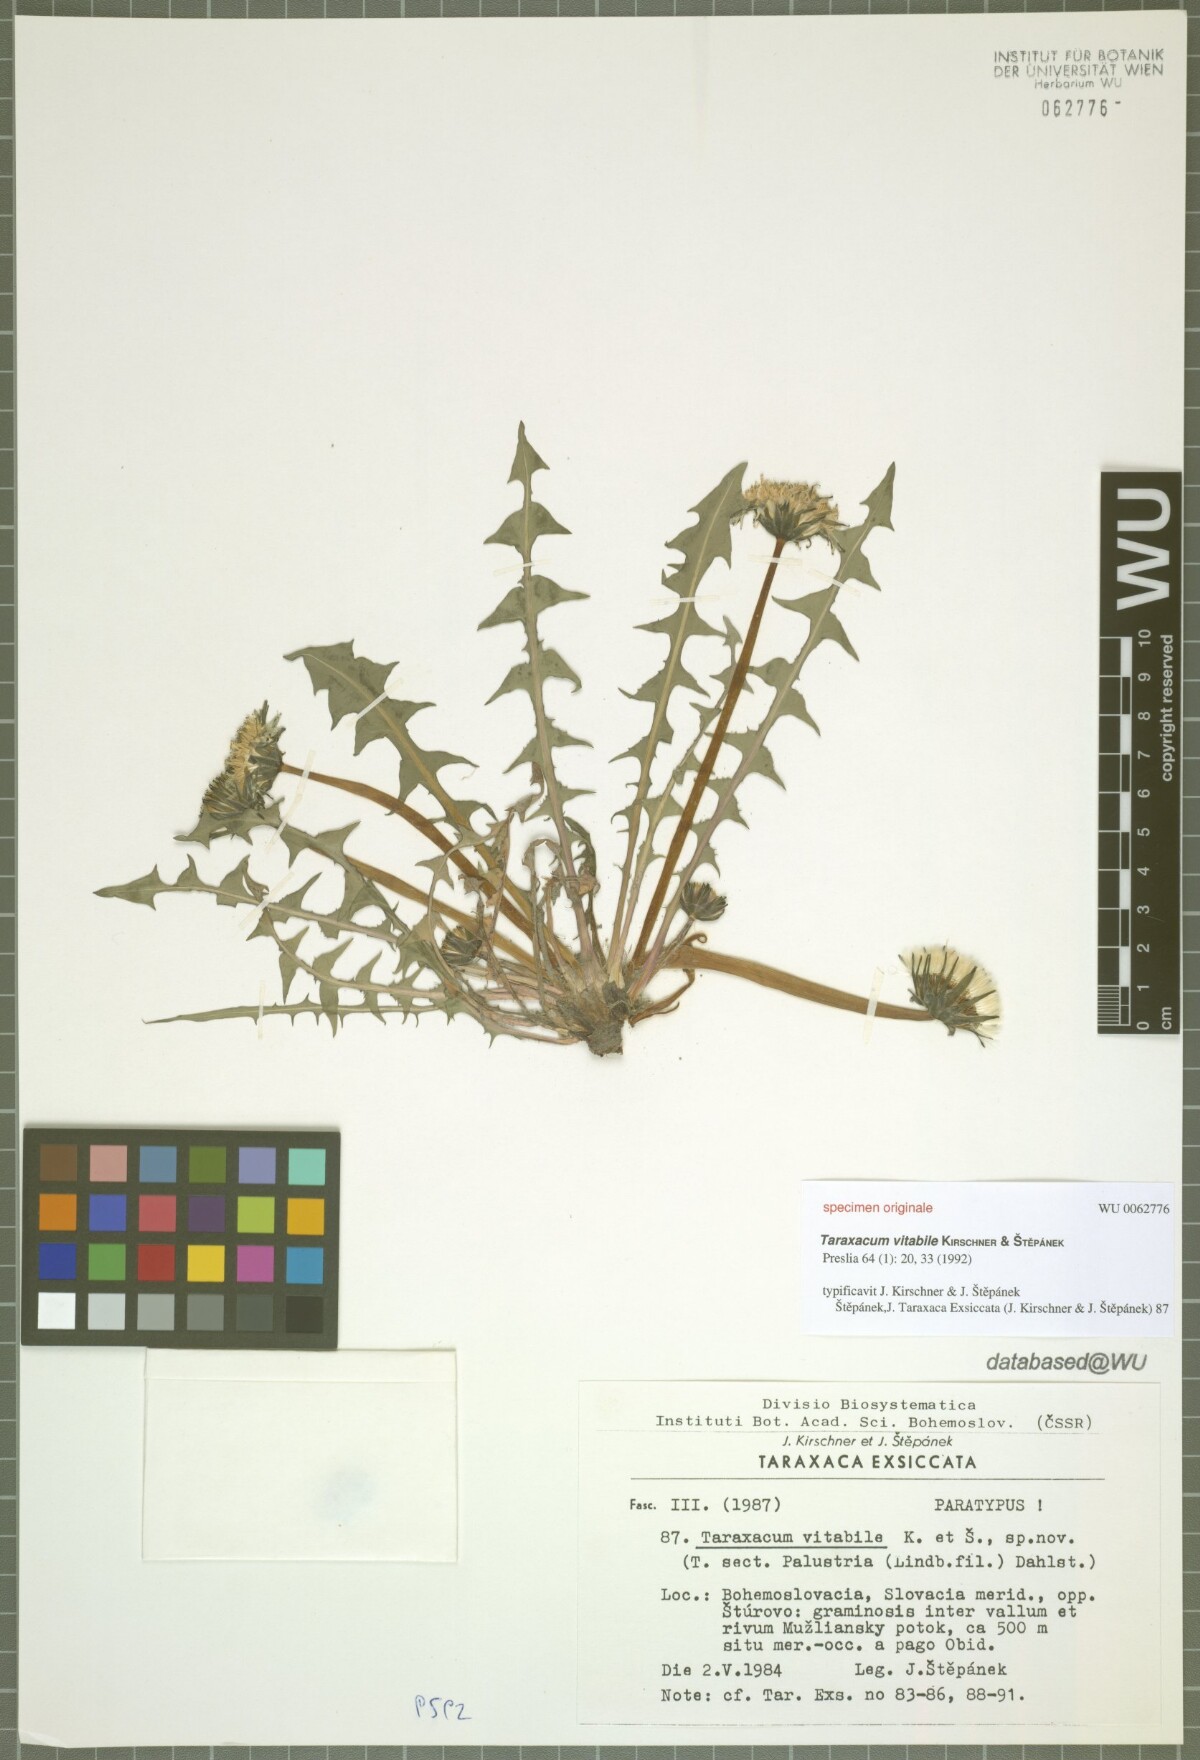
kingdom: Plantae
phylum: Tracheophyta
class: Magnoliopsida
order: Asterales
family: Asteraceae
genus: Taraxacum
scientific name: Taraxacum vindobonense
